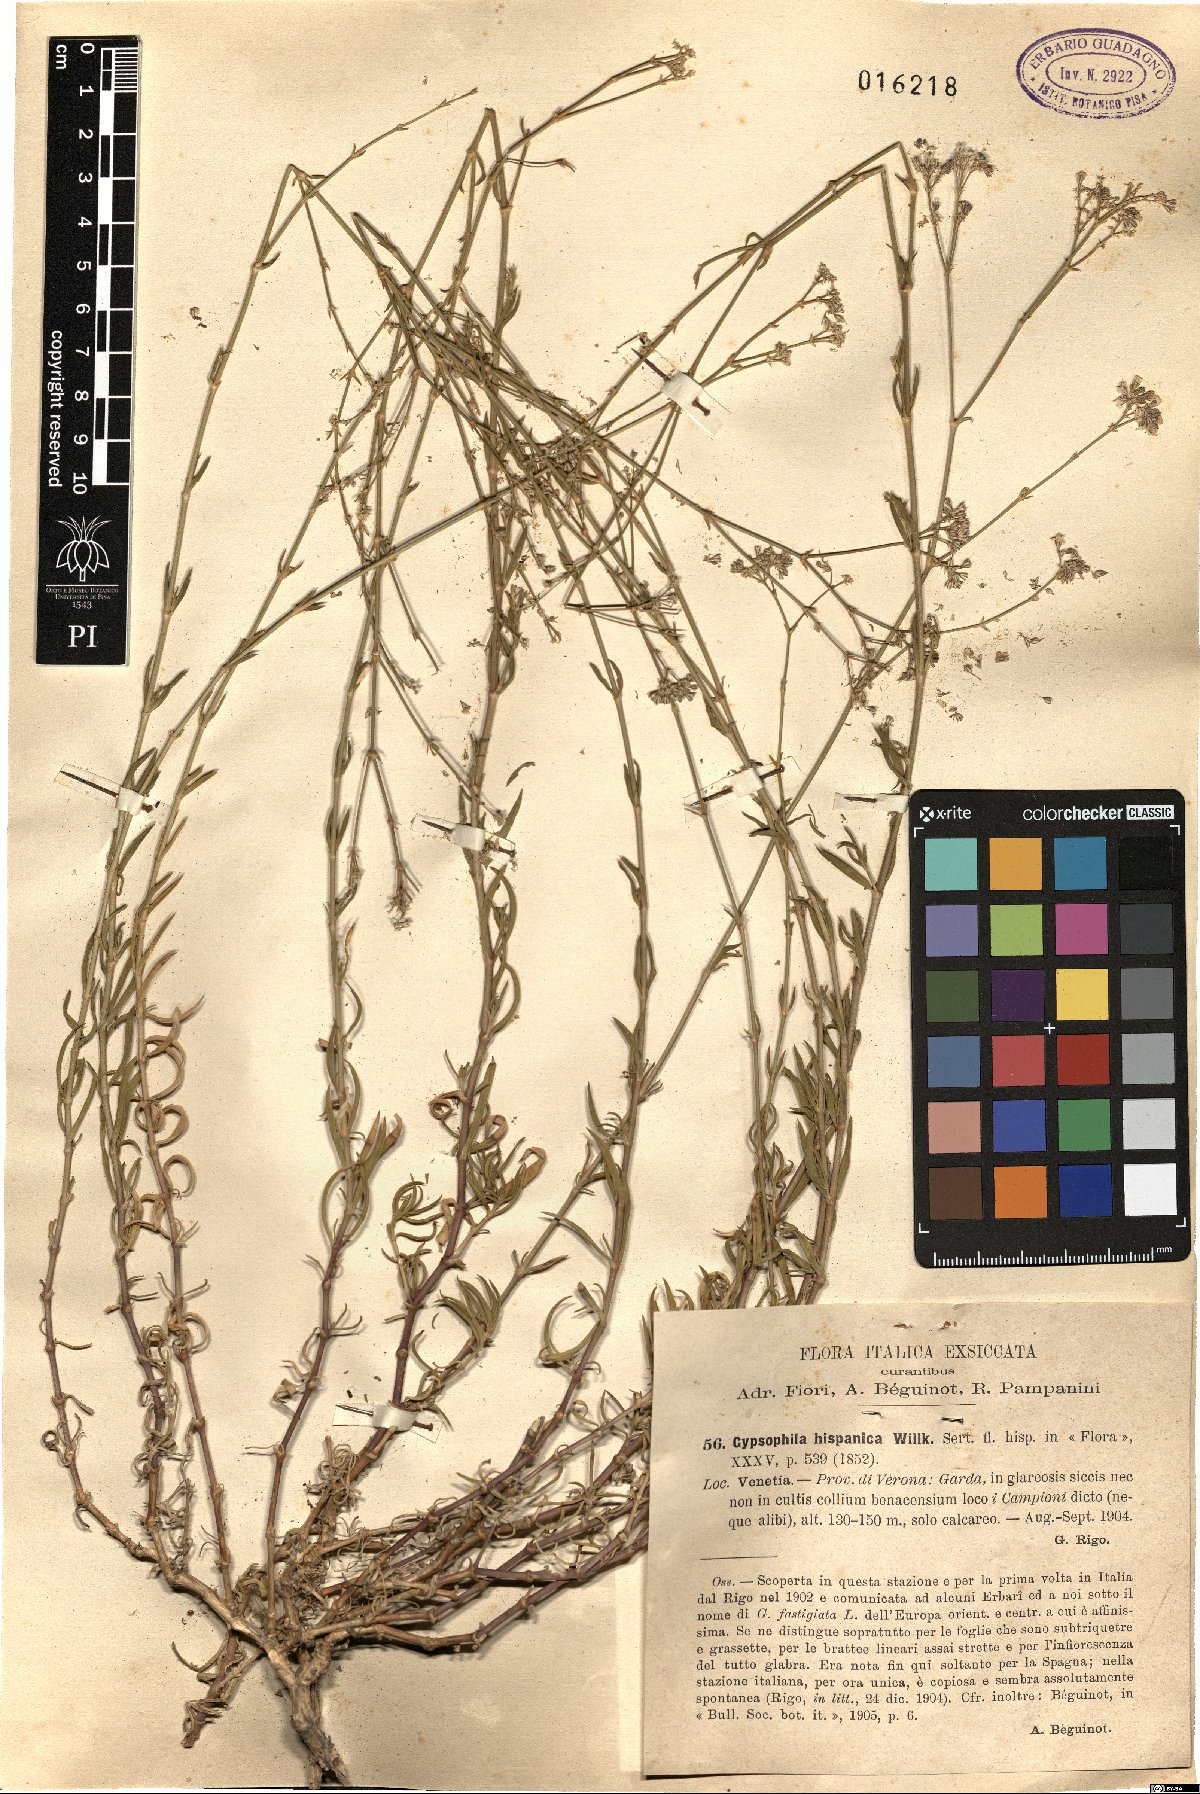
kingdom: Plantae
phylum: Tracheophyta
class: Magnoliopsida
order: Caryophyllales
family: Caryophyllaceae
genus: Gypsophila
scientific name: Gypsophila struthium
